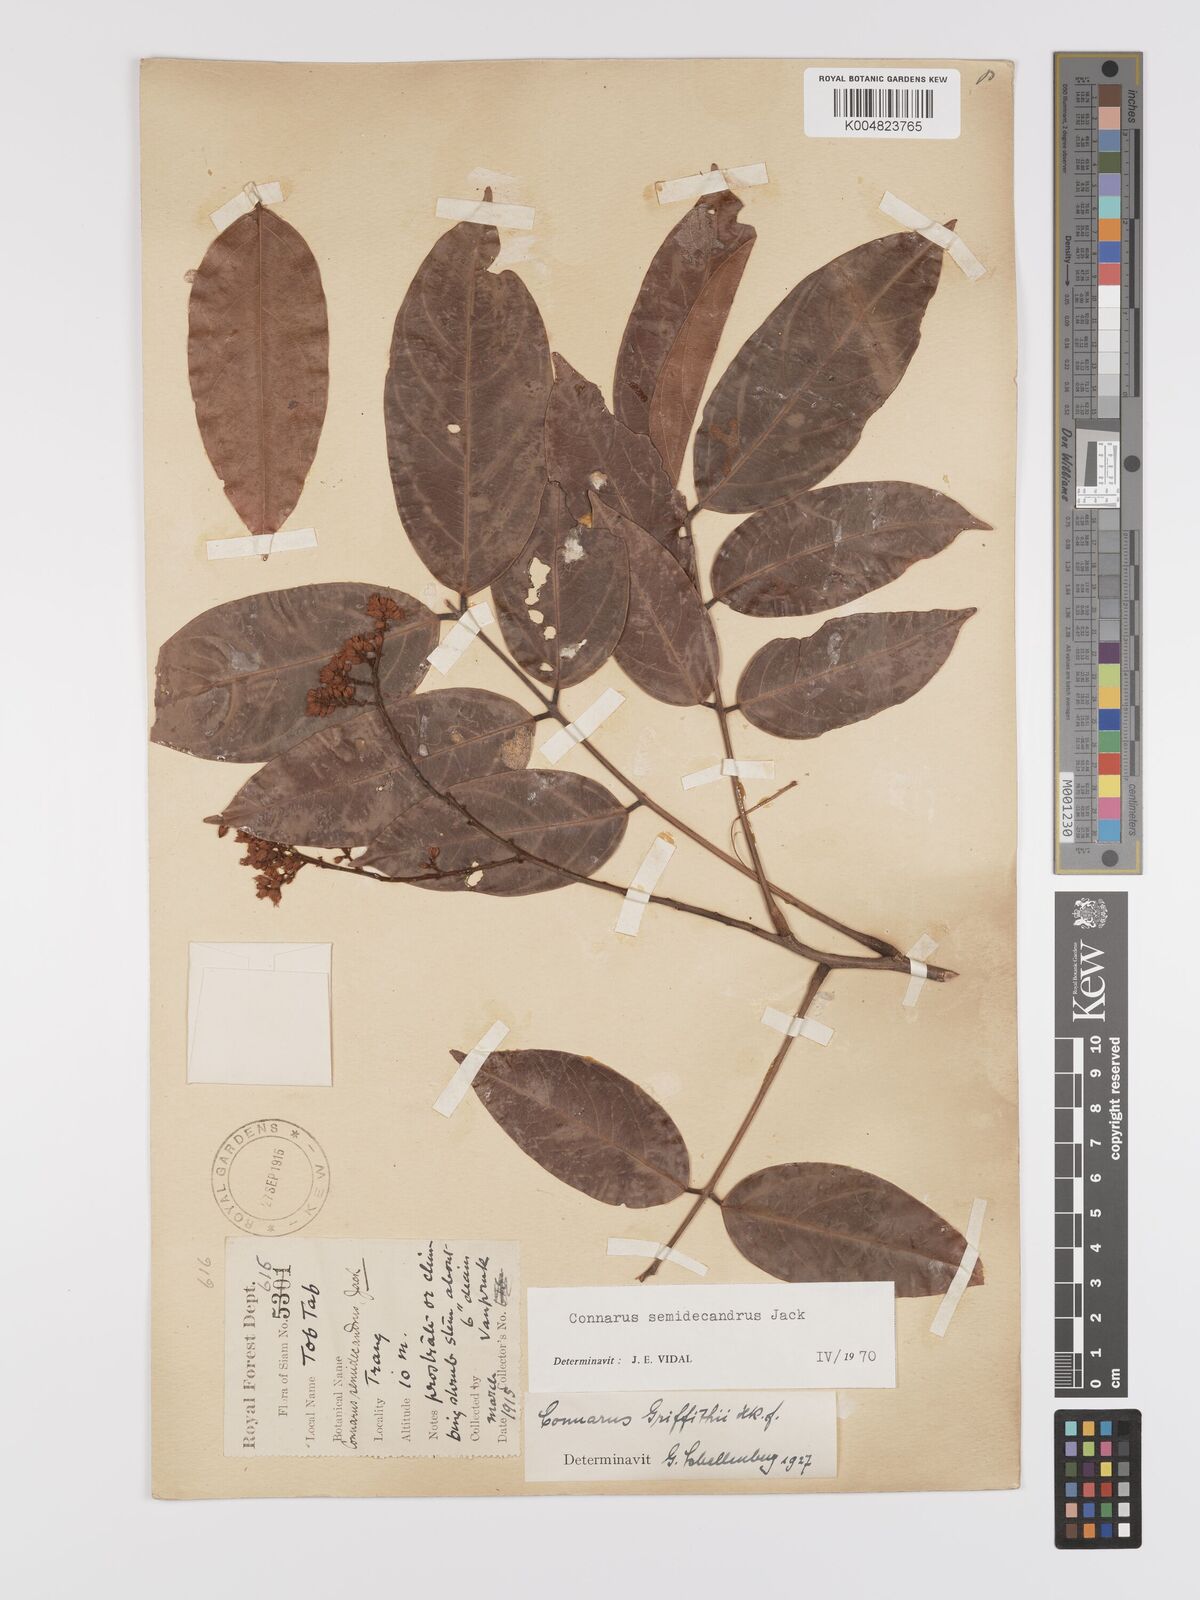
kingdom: Plantae
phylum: Tracheophyta
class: Magnoliopsida
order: Oxalidales
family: Connaraceae
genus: Connarus
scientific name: Connarus semidecandrus
